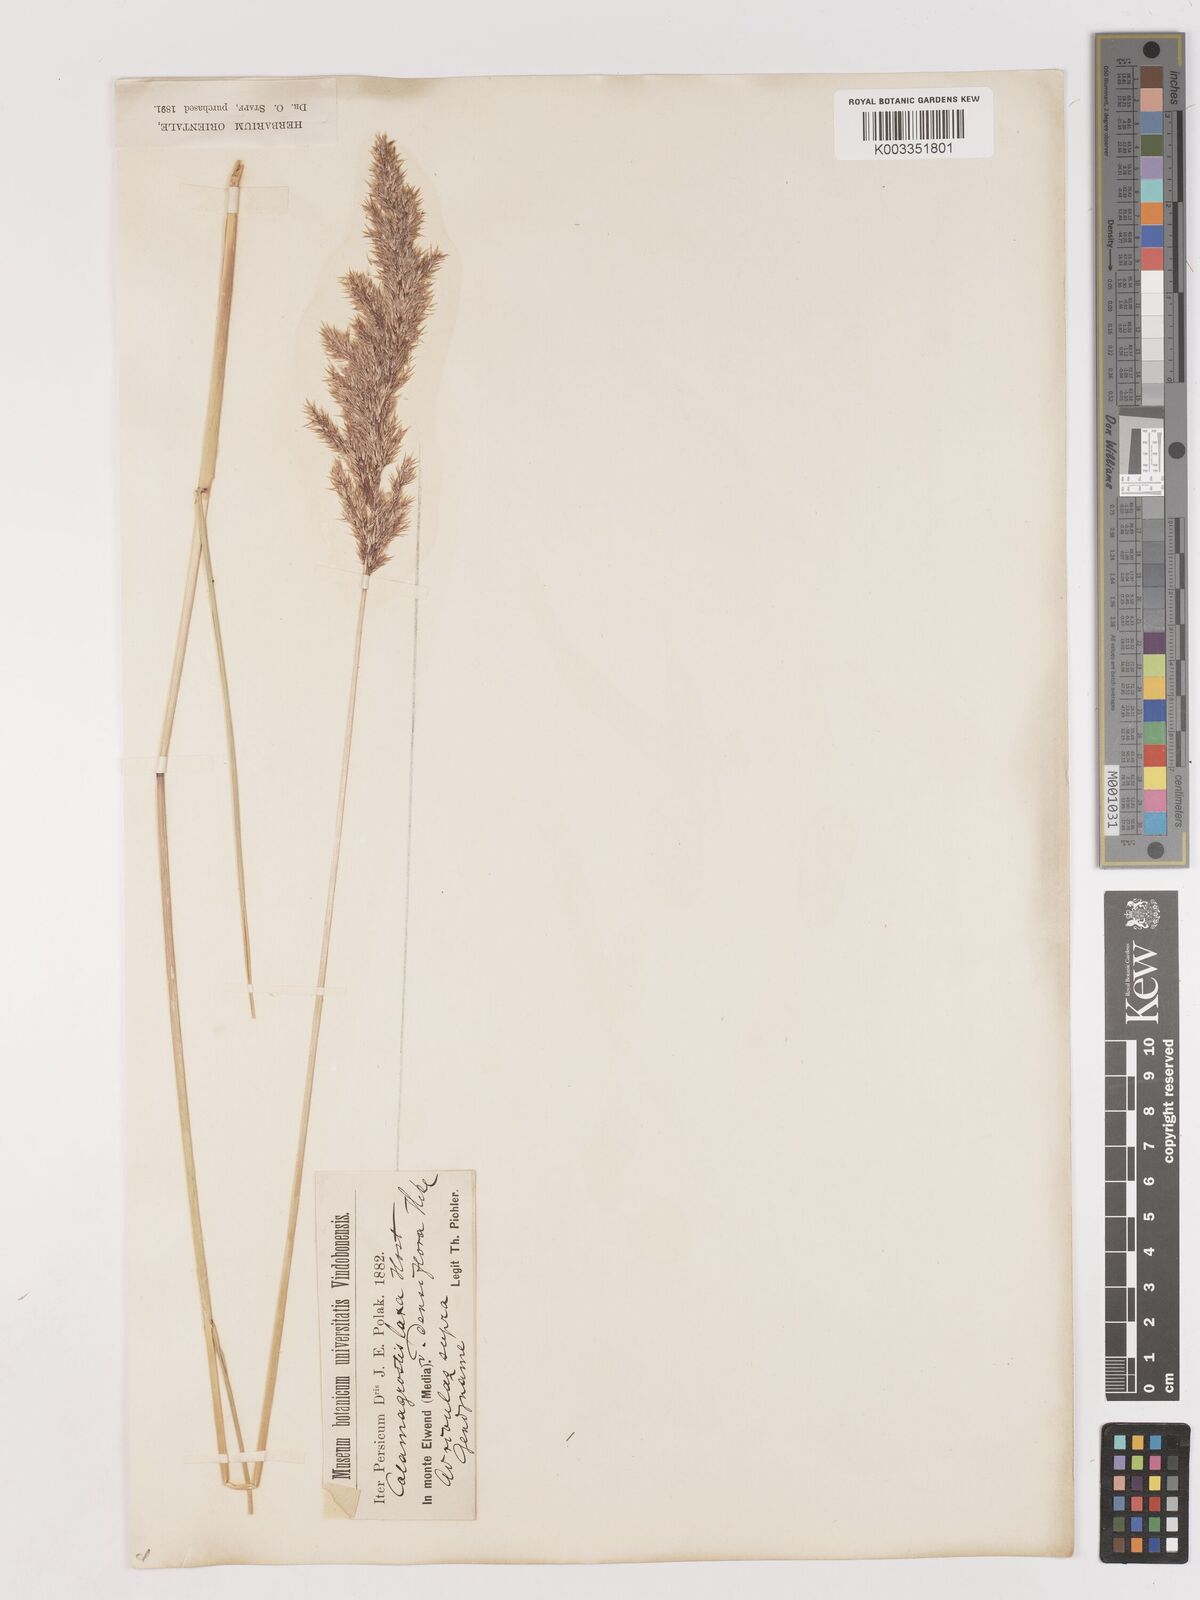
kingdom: Plantae
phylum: Tracheophyta
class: Liliopsida
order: Poales
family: Poaceae
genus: Calamagrostis
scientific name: Calamagrostis pseudophragmites
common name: Coastal small-reed
